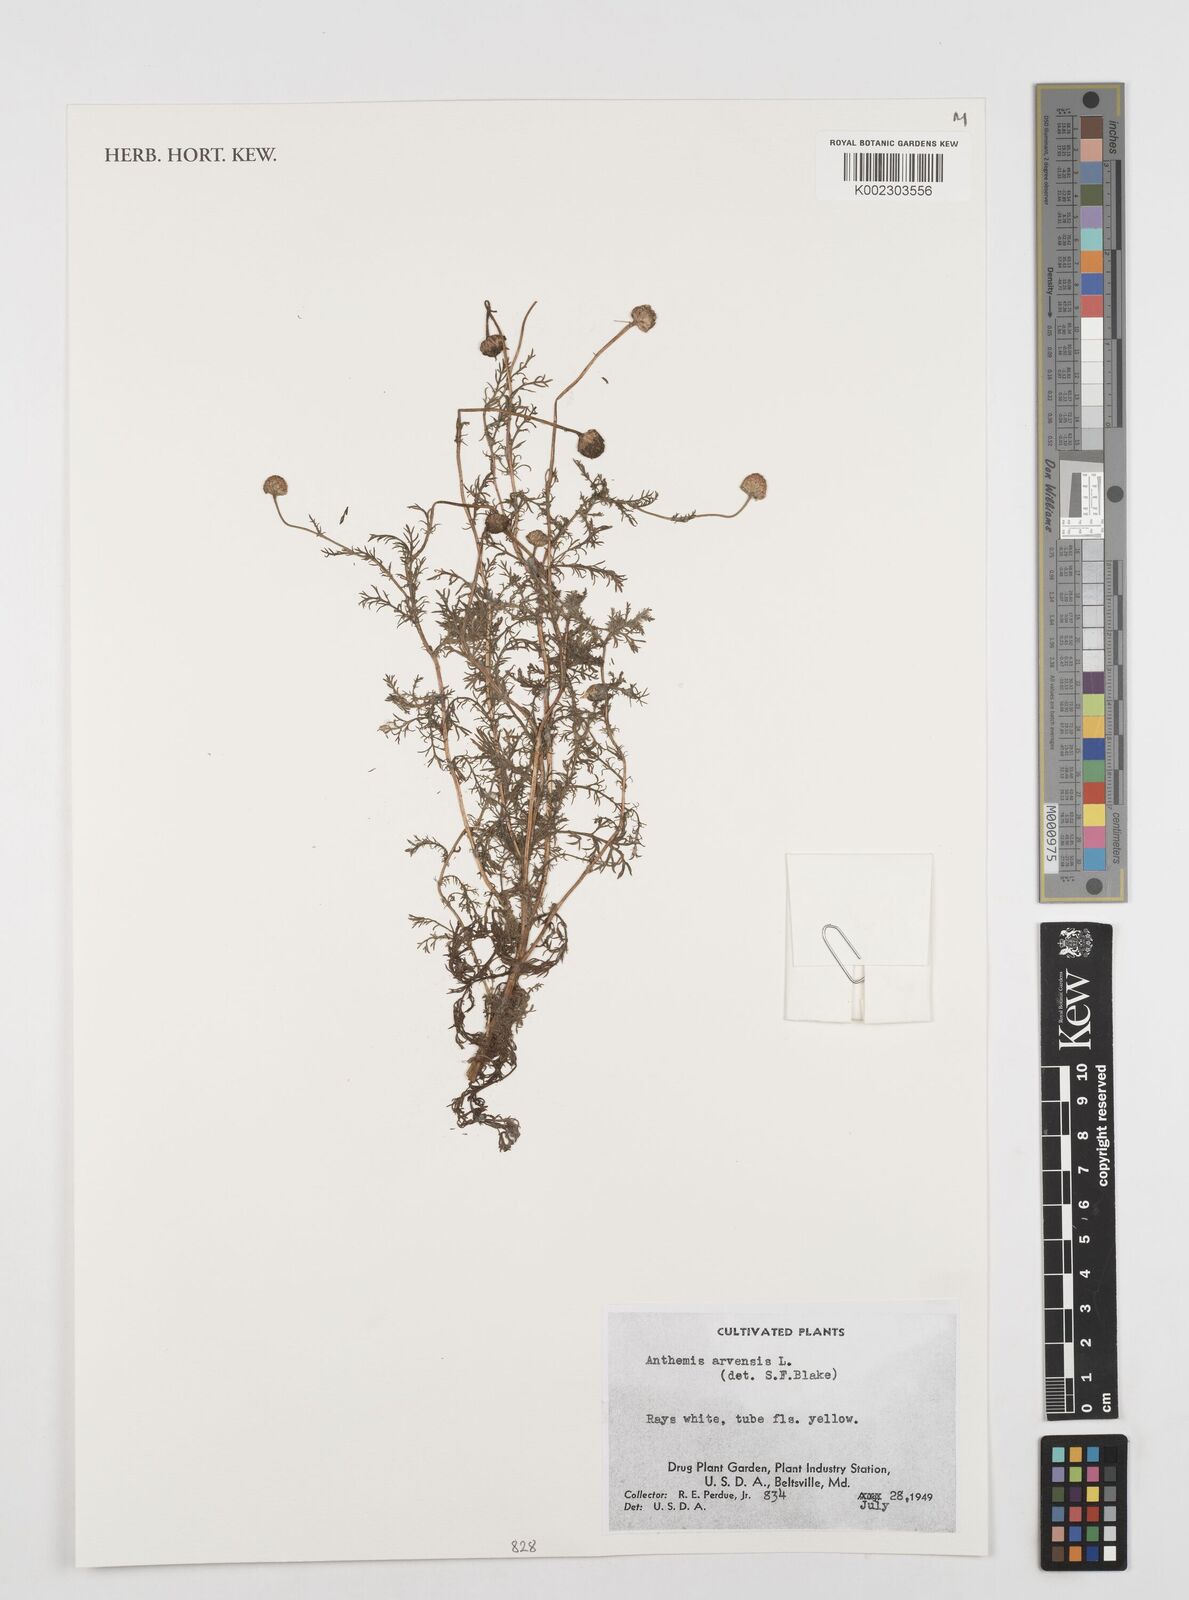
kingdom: Plantae
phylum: Tracheophyta
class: Magnoliopsida
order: Asterales
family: Asteraceae
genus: Artemisia
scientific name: Artemisia
